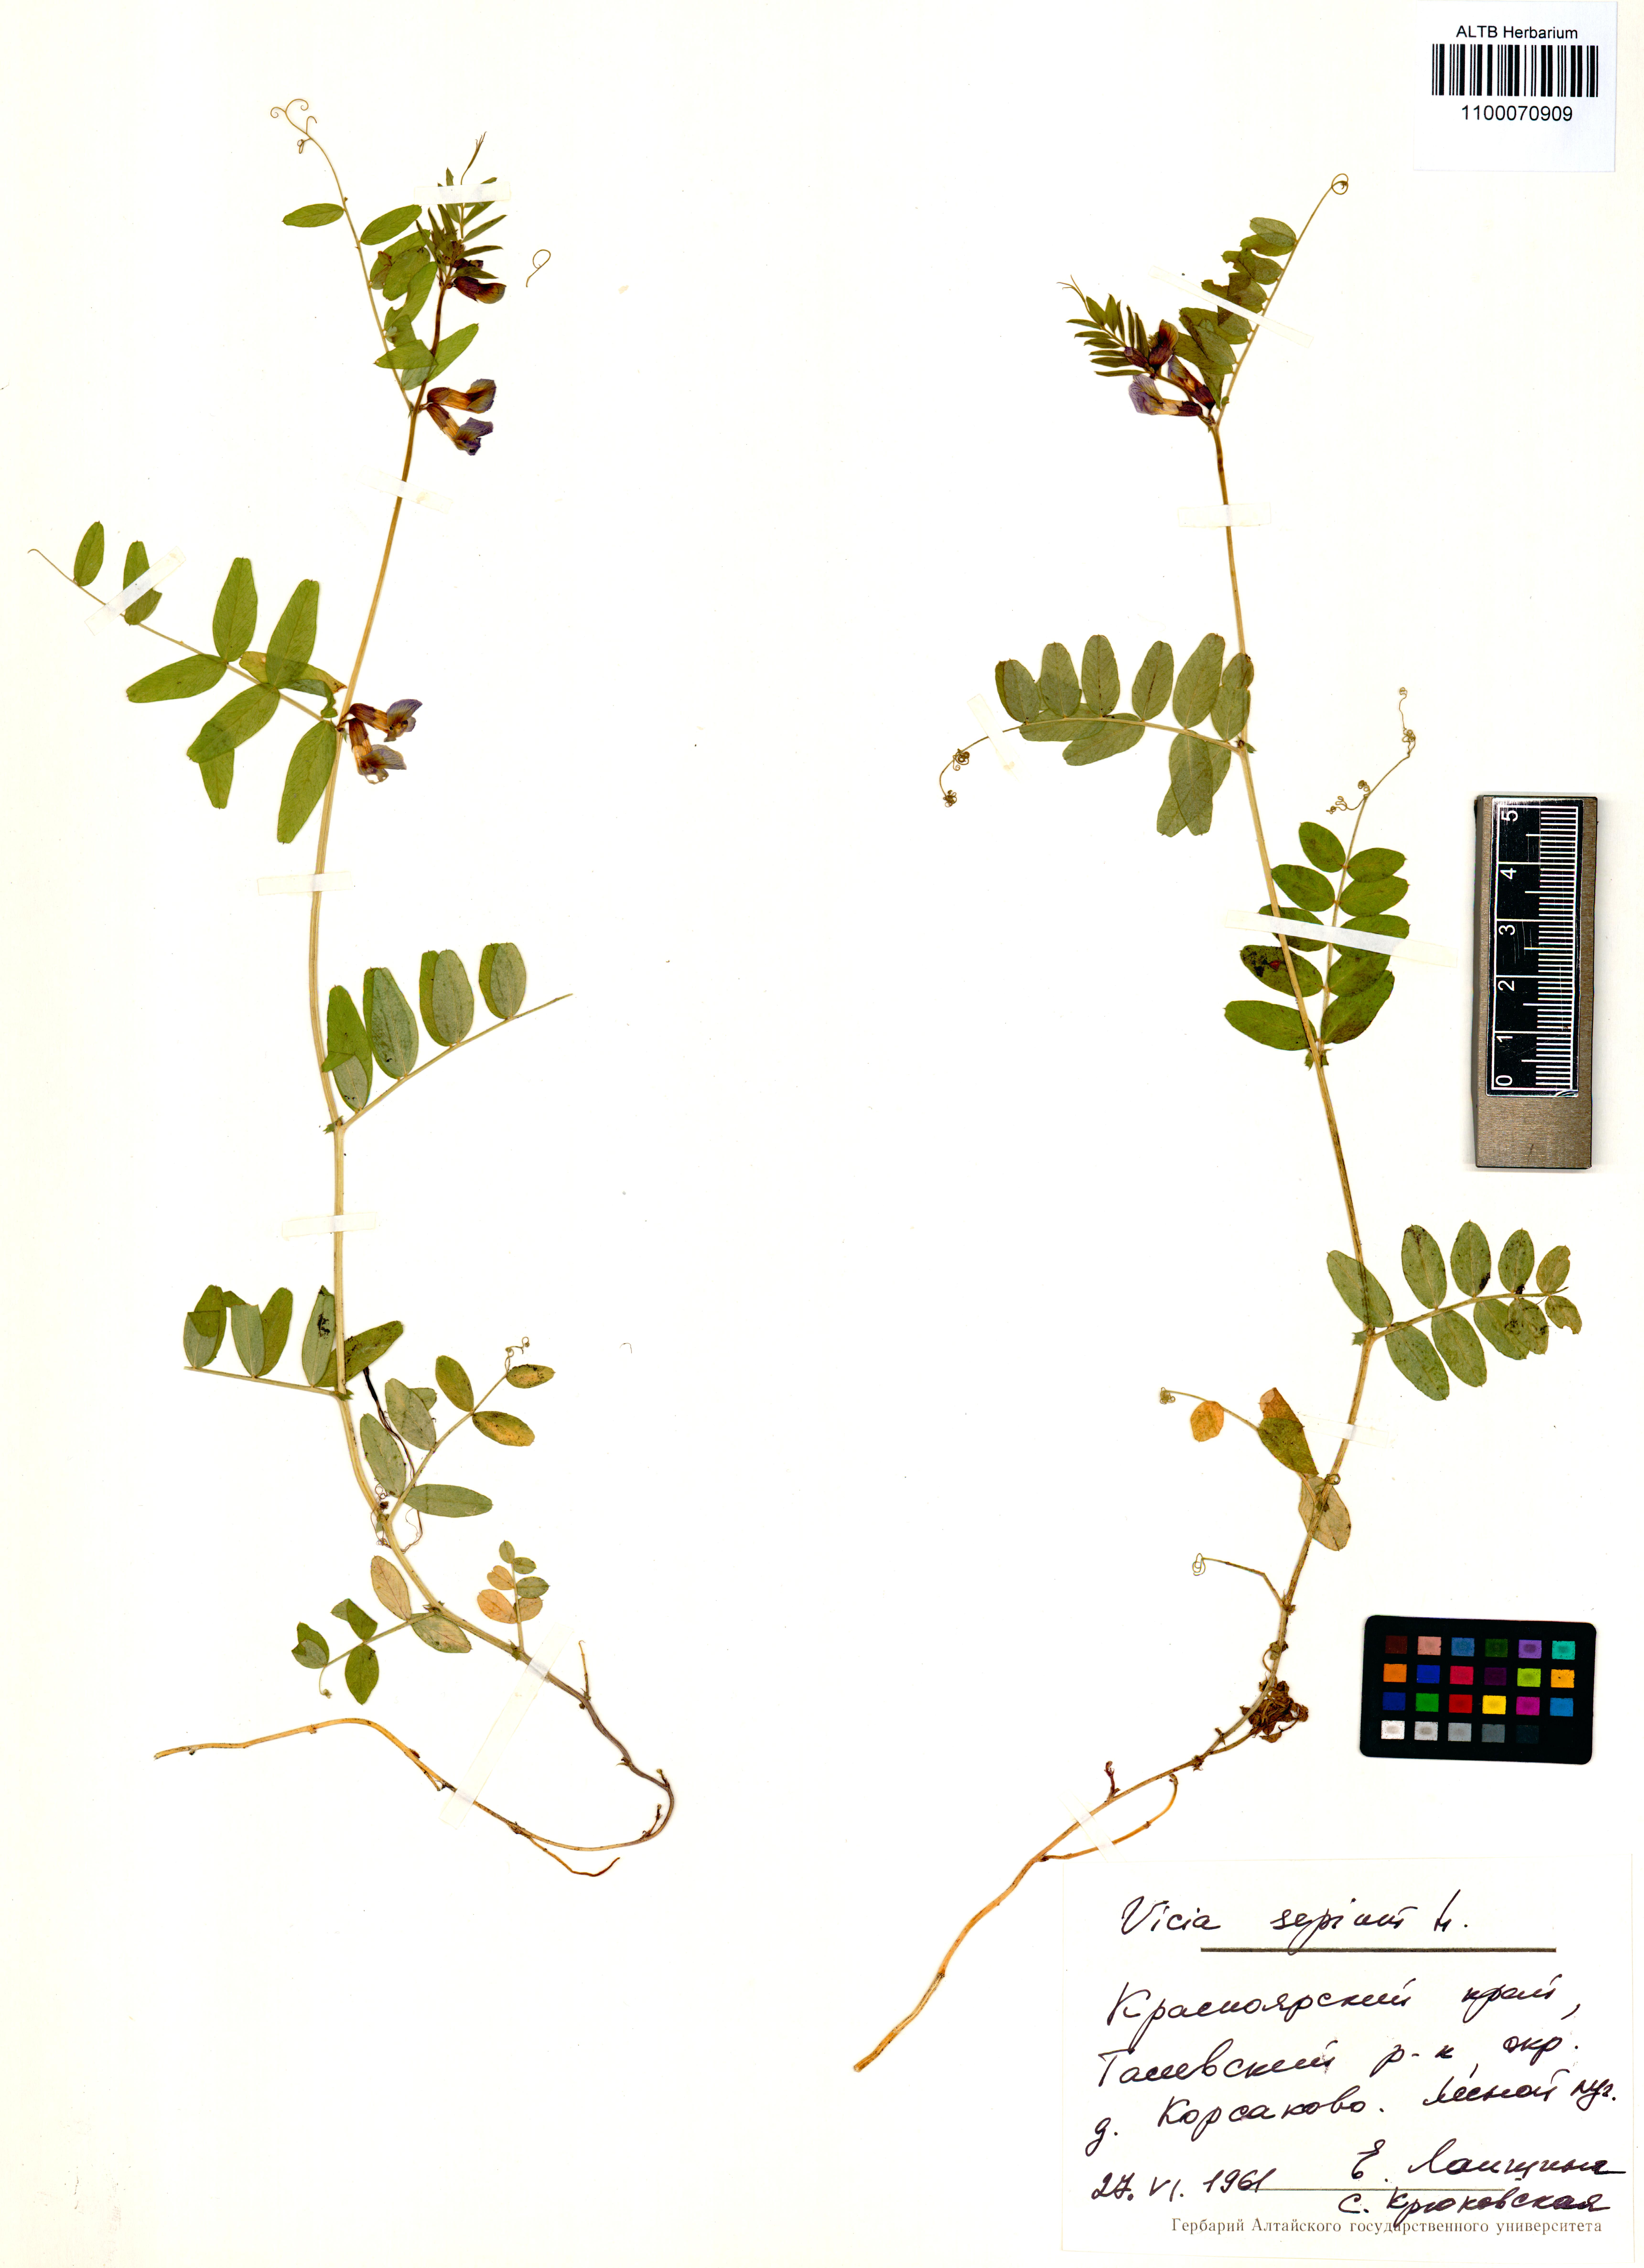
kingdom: Plantae
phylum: Tracheophyta
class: Magnoliopsida
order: Fabales
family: Fabaceae
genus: Vicia
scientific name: Vicia sepium
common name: Bush vetch
